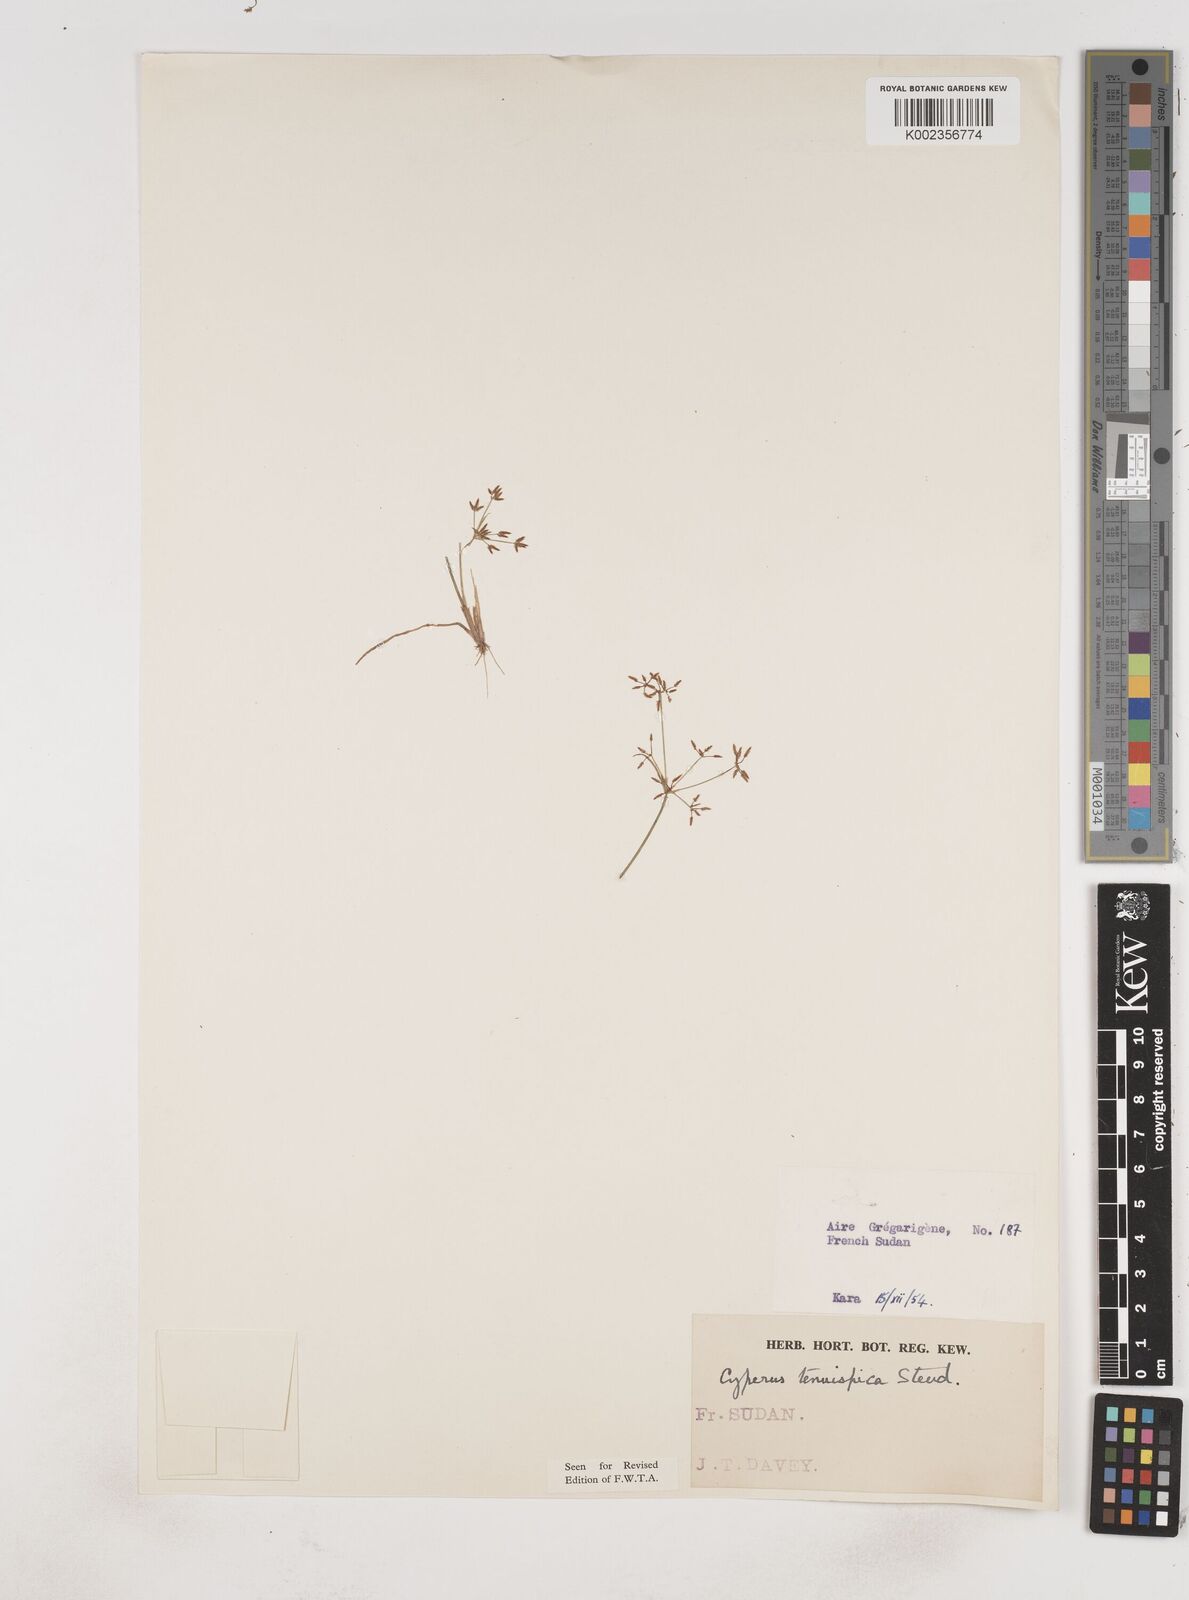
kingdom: Plantae
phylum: Tracheophyta
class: Liliopsida
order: Poales
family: Cyperaceae
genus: Cyperus
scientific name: Cyperus tenuispica
